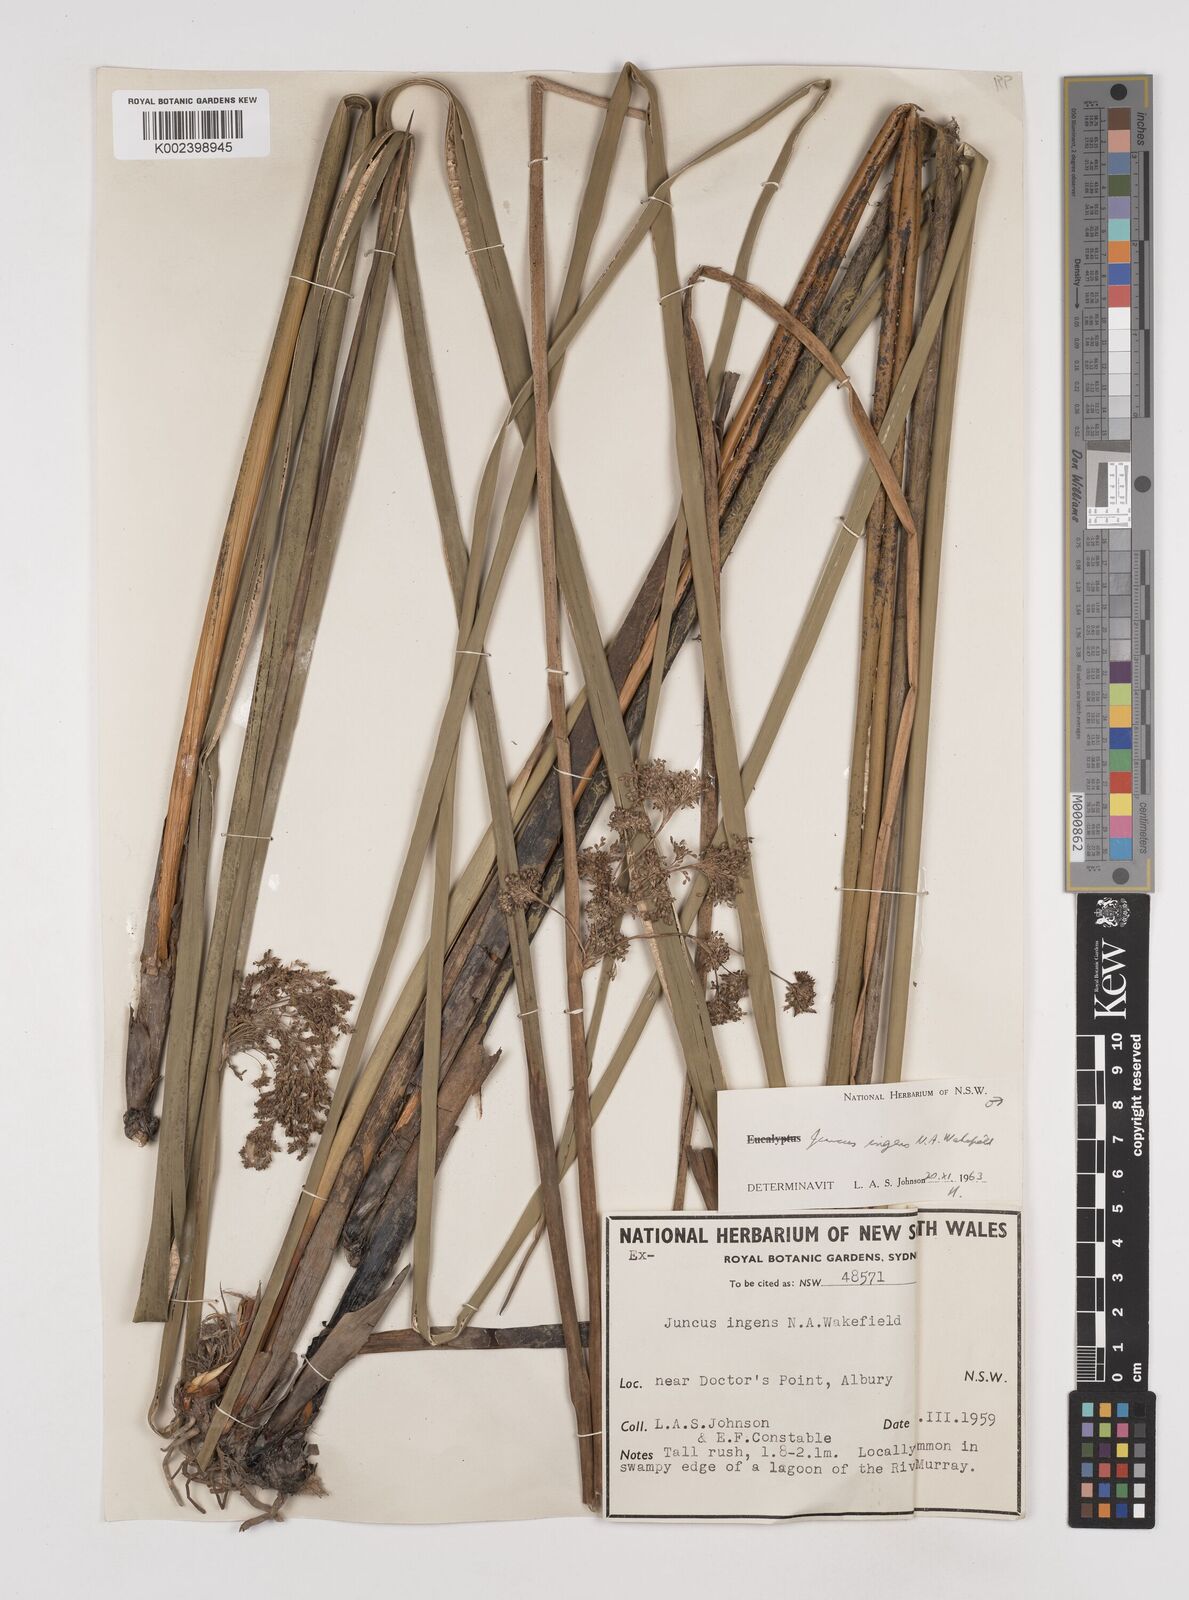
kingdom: Plantae
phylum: Tracheophyta
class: Liliopsida
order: Poales
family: Juncaceae
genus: Juncus
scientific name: Juncus
